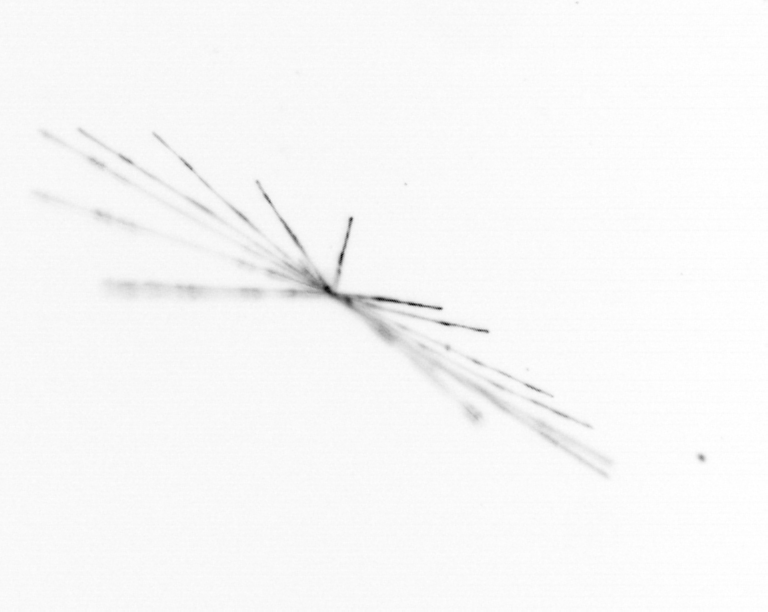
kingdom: Chromista
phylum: Ochrophyta
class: Bacillariophyceae
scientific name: Bacillariophyceae
